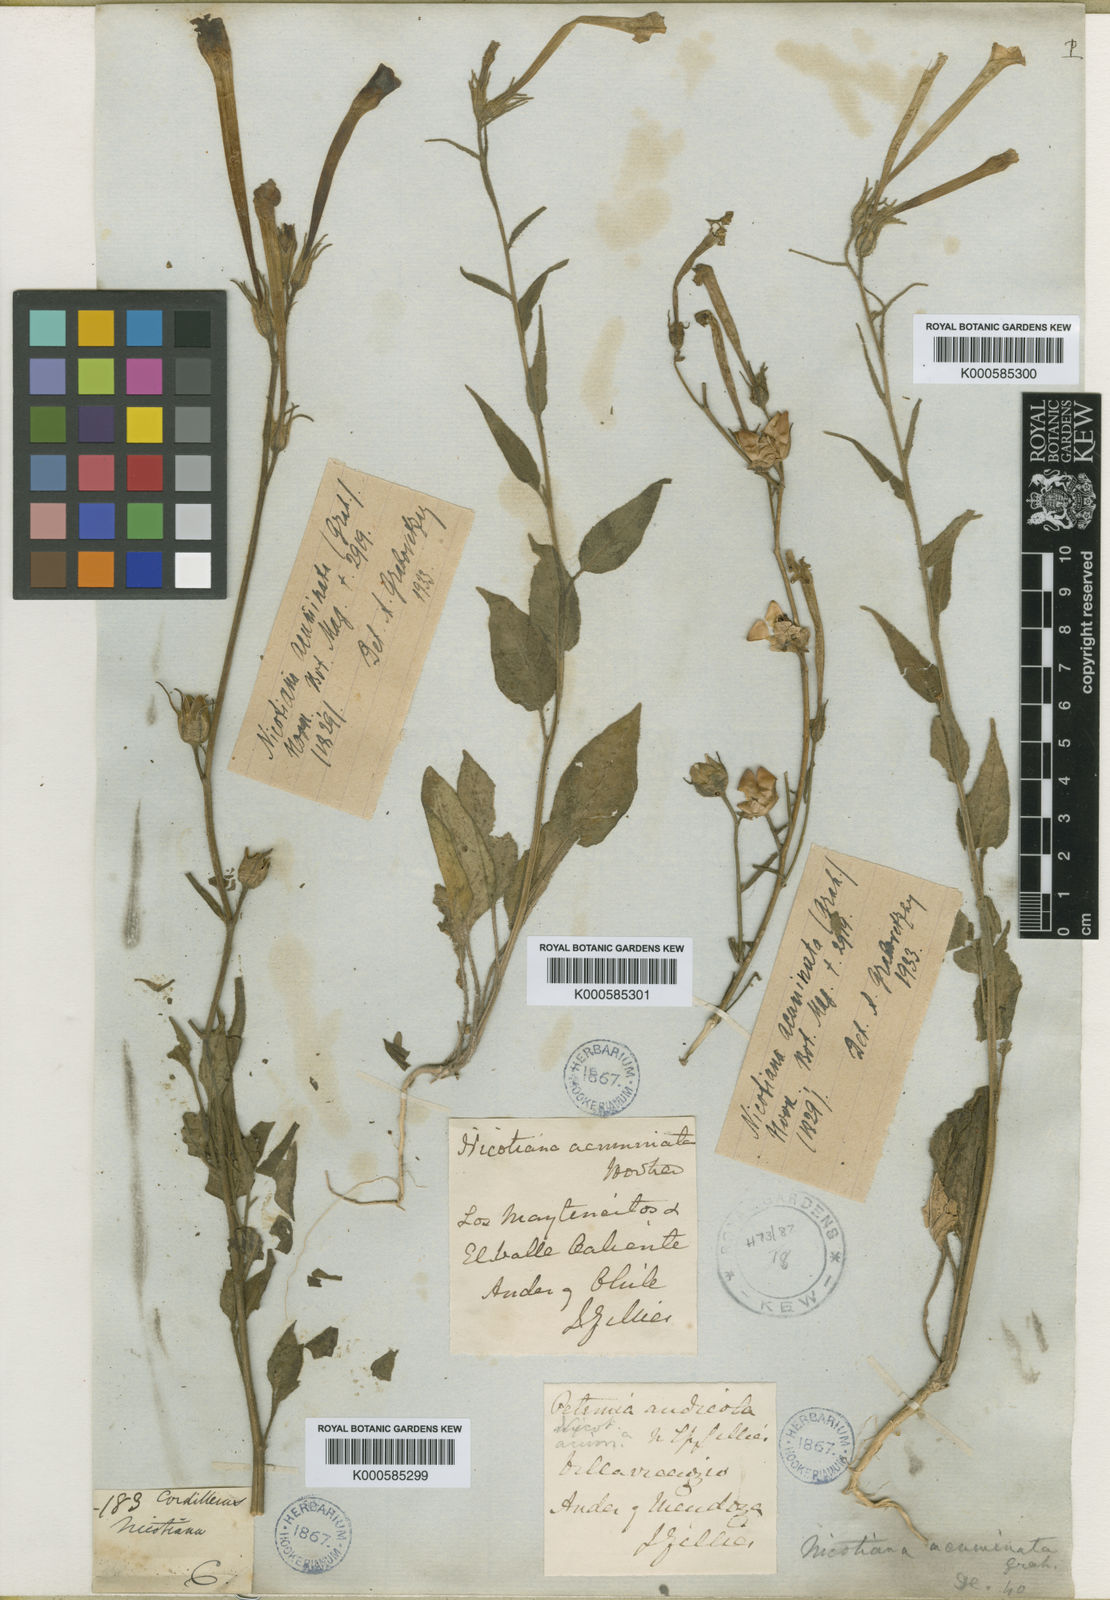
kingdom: Plantae
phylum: Tracheophyta
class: Magnoliopsida
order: Solanales
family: Solanaceae
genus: Nicotiana
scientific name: Nicotiana acuminata
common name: Manyflower tobacco
